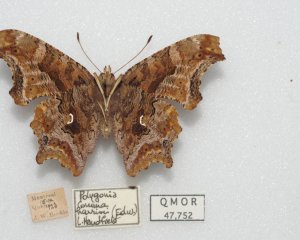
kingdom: Animalia
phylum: Arthropoda
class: Insecta
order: Lepidoptera
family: Nymphalidae
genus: Polygonia
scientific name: Polygonia comma
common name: Eastern Comma
